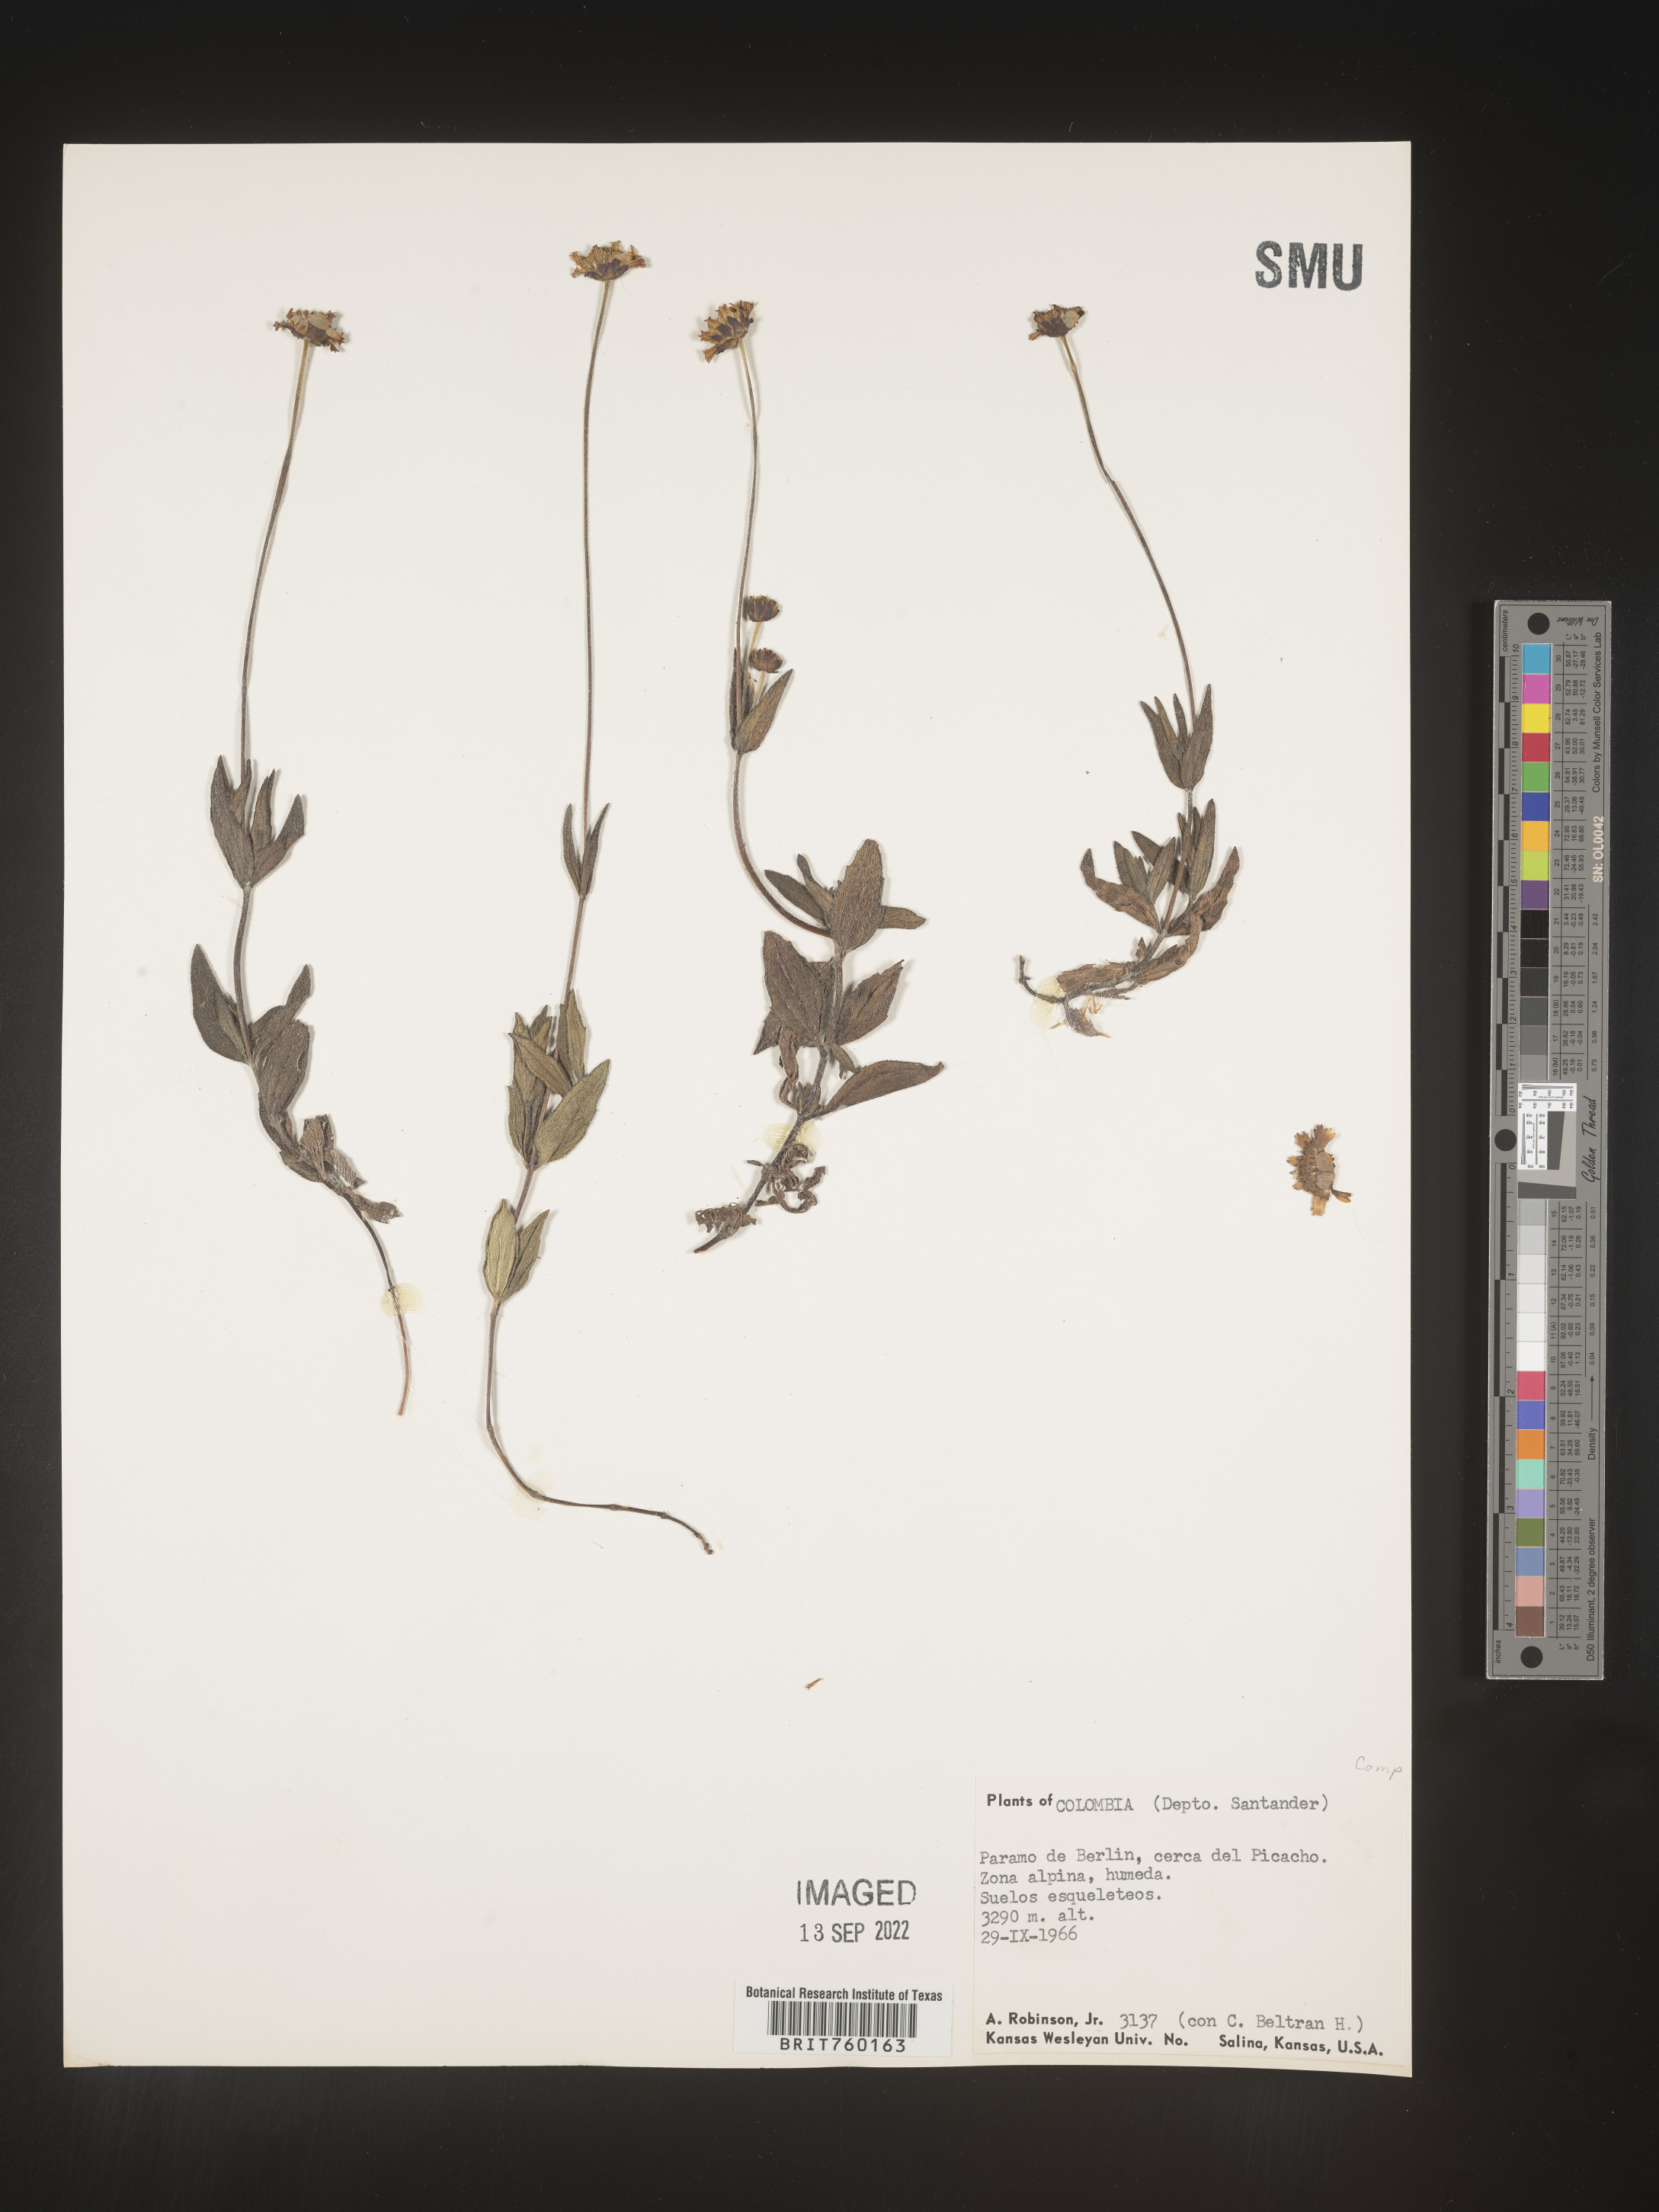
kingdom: Plantae
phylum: Tracheophyta
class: Magnoliopsida
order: Asterales
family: Asteraceae
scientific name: Asteraceae
